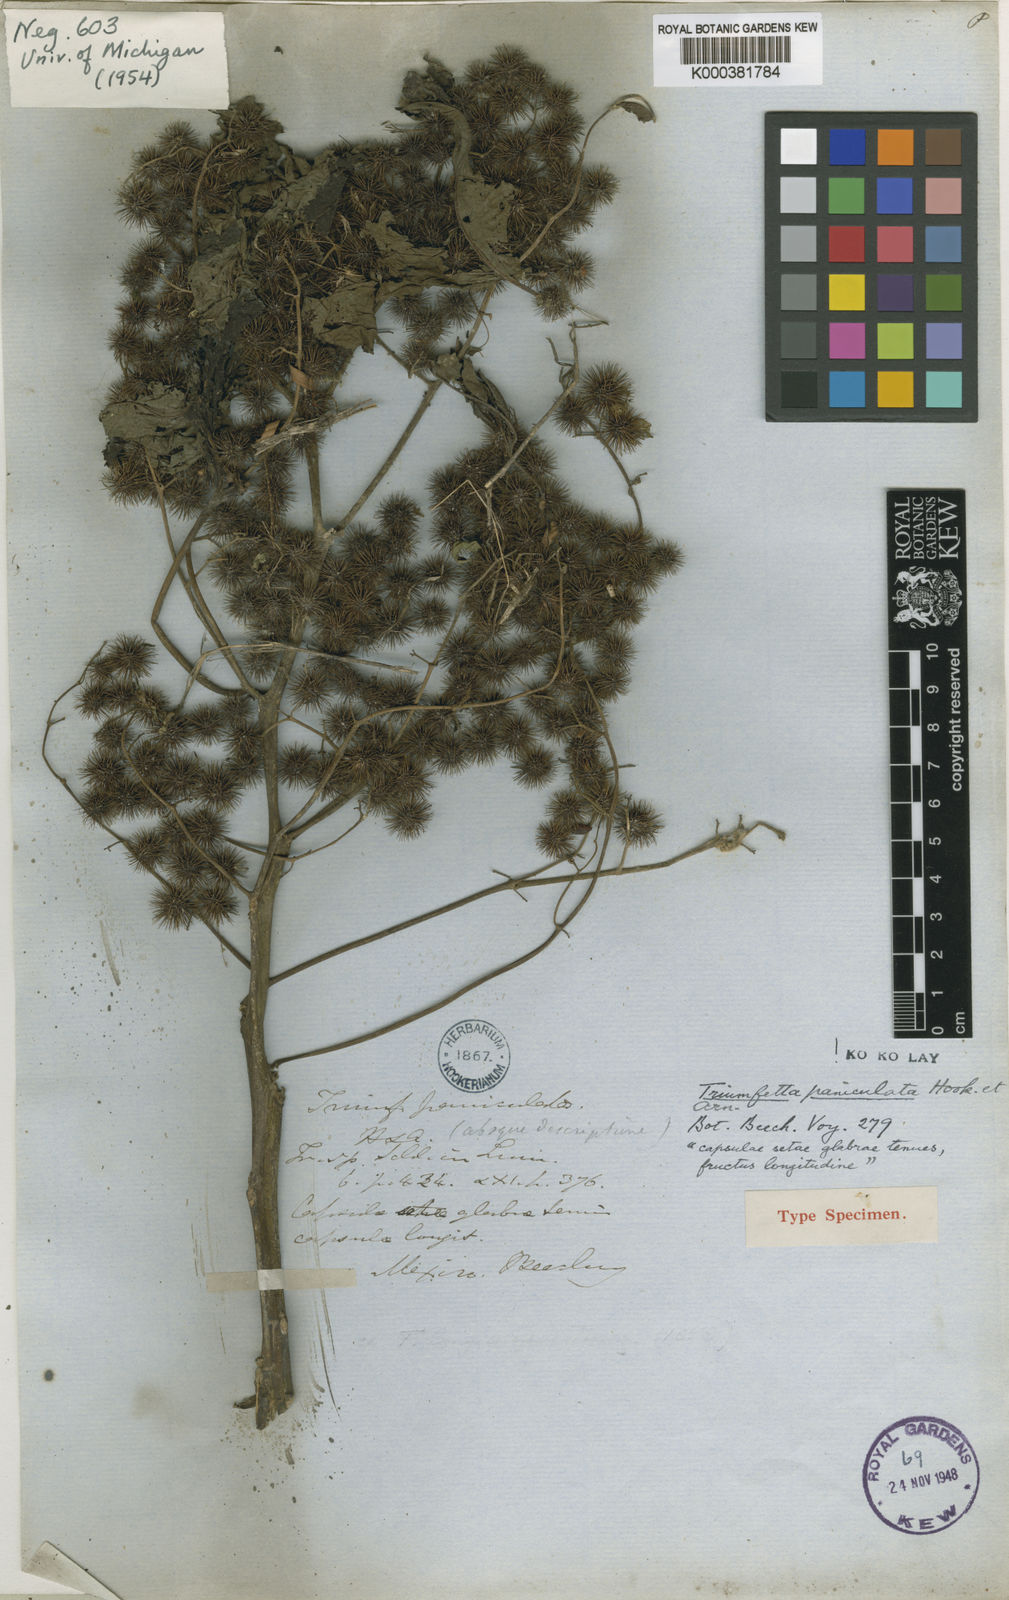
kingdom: Plantae
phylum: Tracheophyta
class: Magnoliopsida
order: Malvales
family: Malvaceae
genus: Triumfetta
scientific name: Triumfetta paniculata
